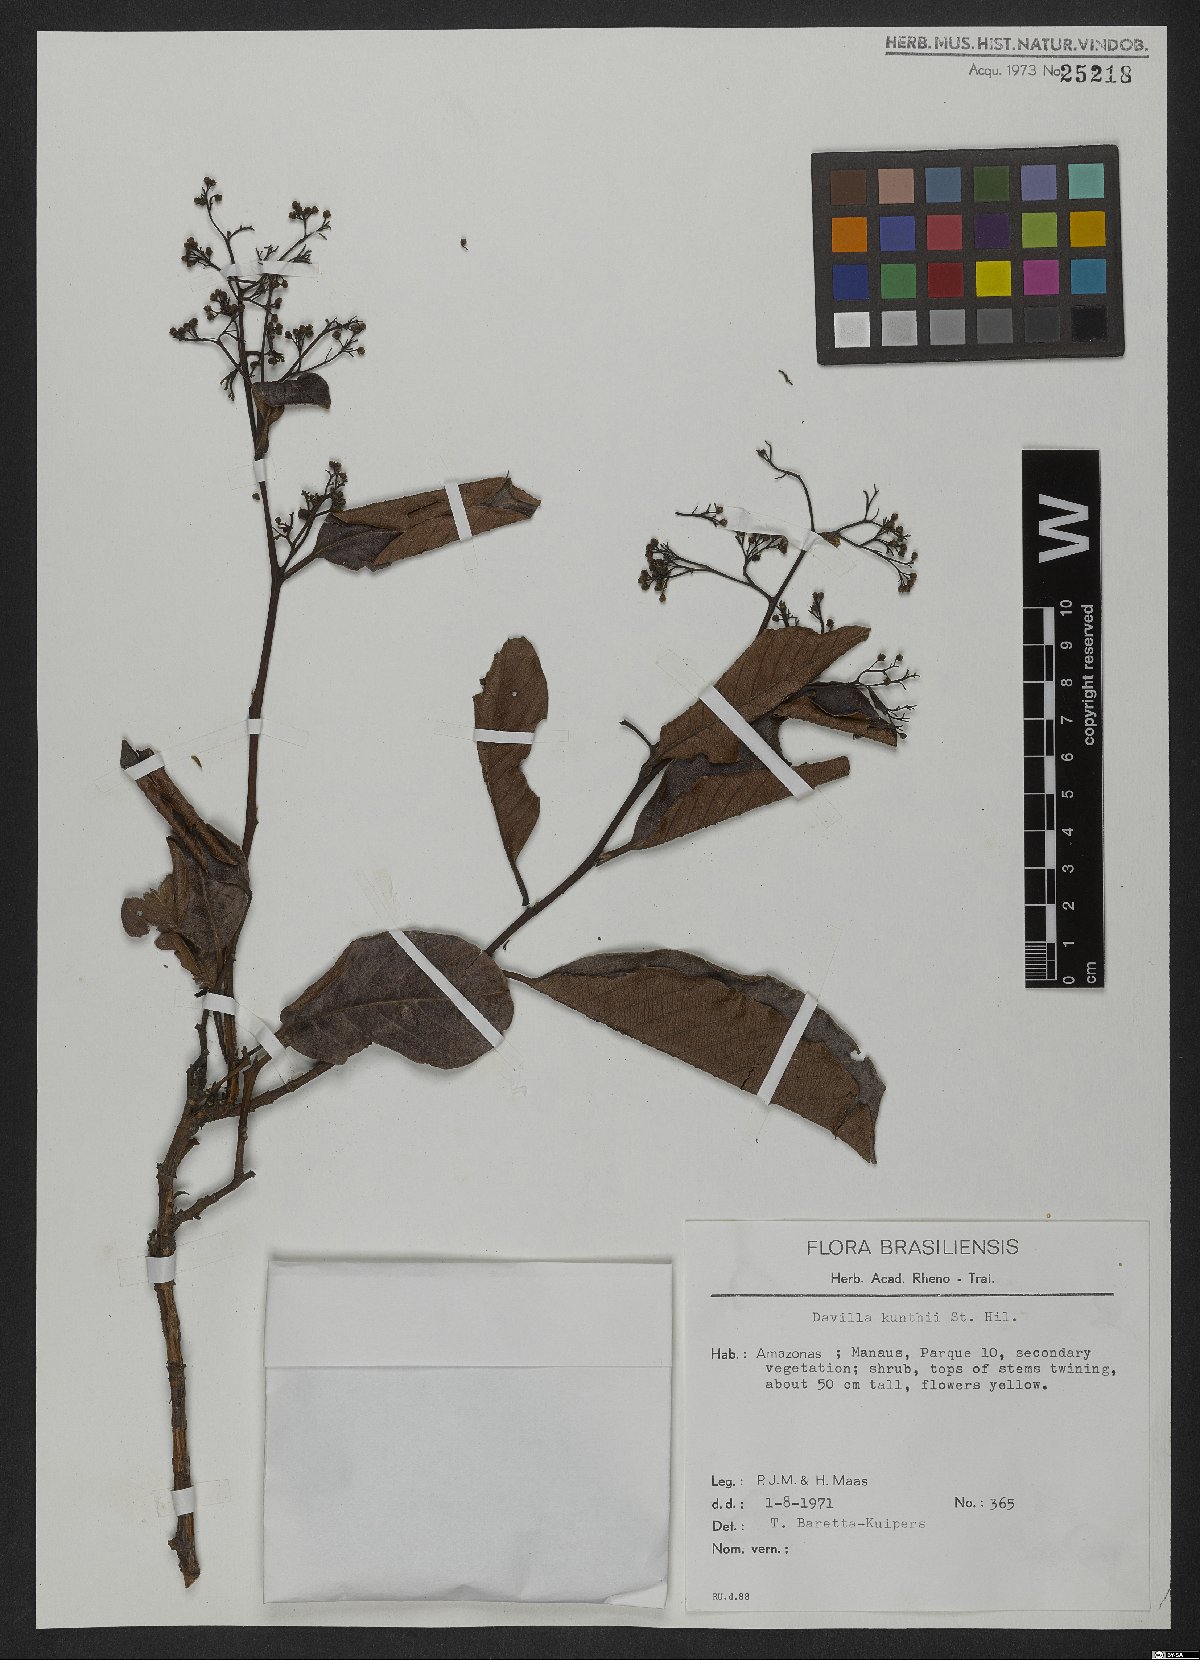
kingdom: Plantae
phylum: Tracheophyta
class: Magnoliopsida
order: Dilleniales
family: Dilleniaceae
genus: Davilla
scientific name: Davilla kunthii
